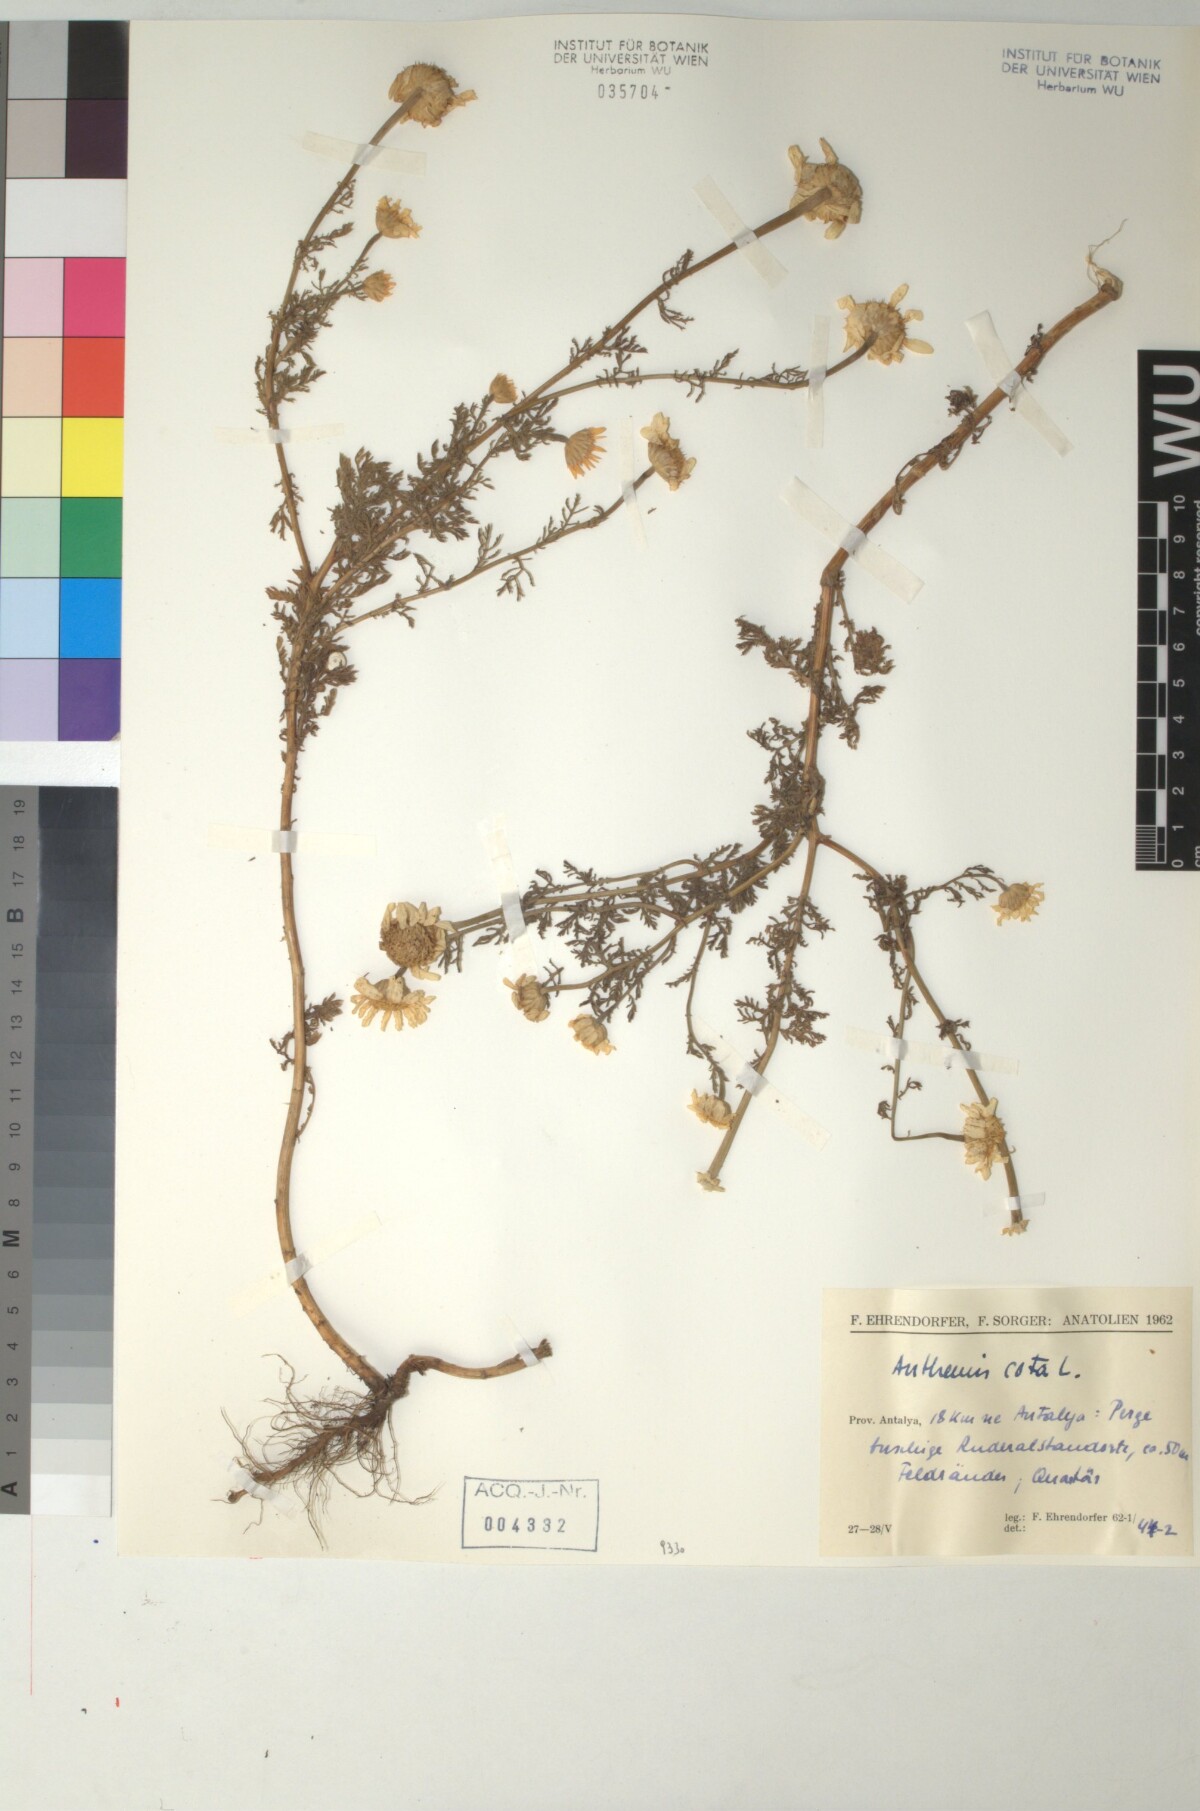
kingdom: Plantae
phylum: Tracheophyta
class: Magnoliopsida
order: Asterales
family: Asteraceae
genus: Cota
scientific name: Cota altissima
